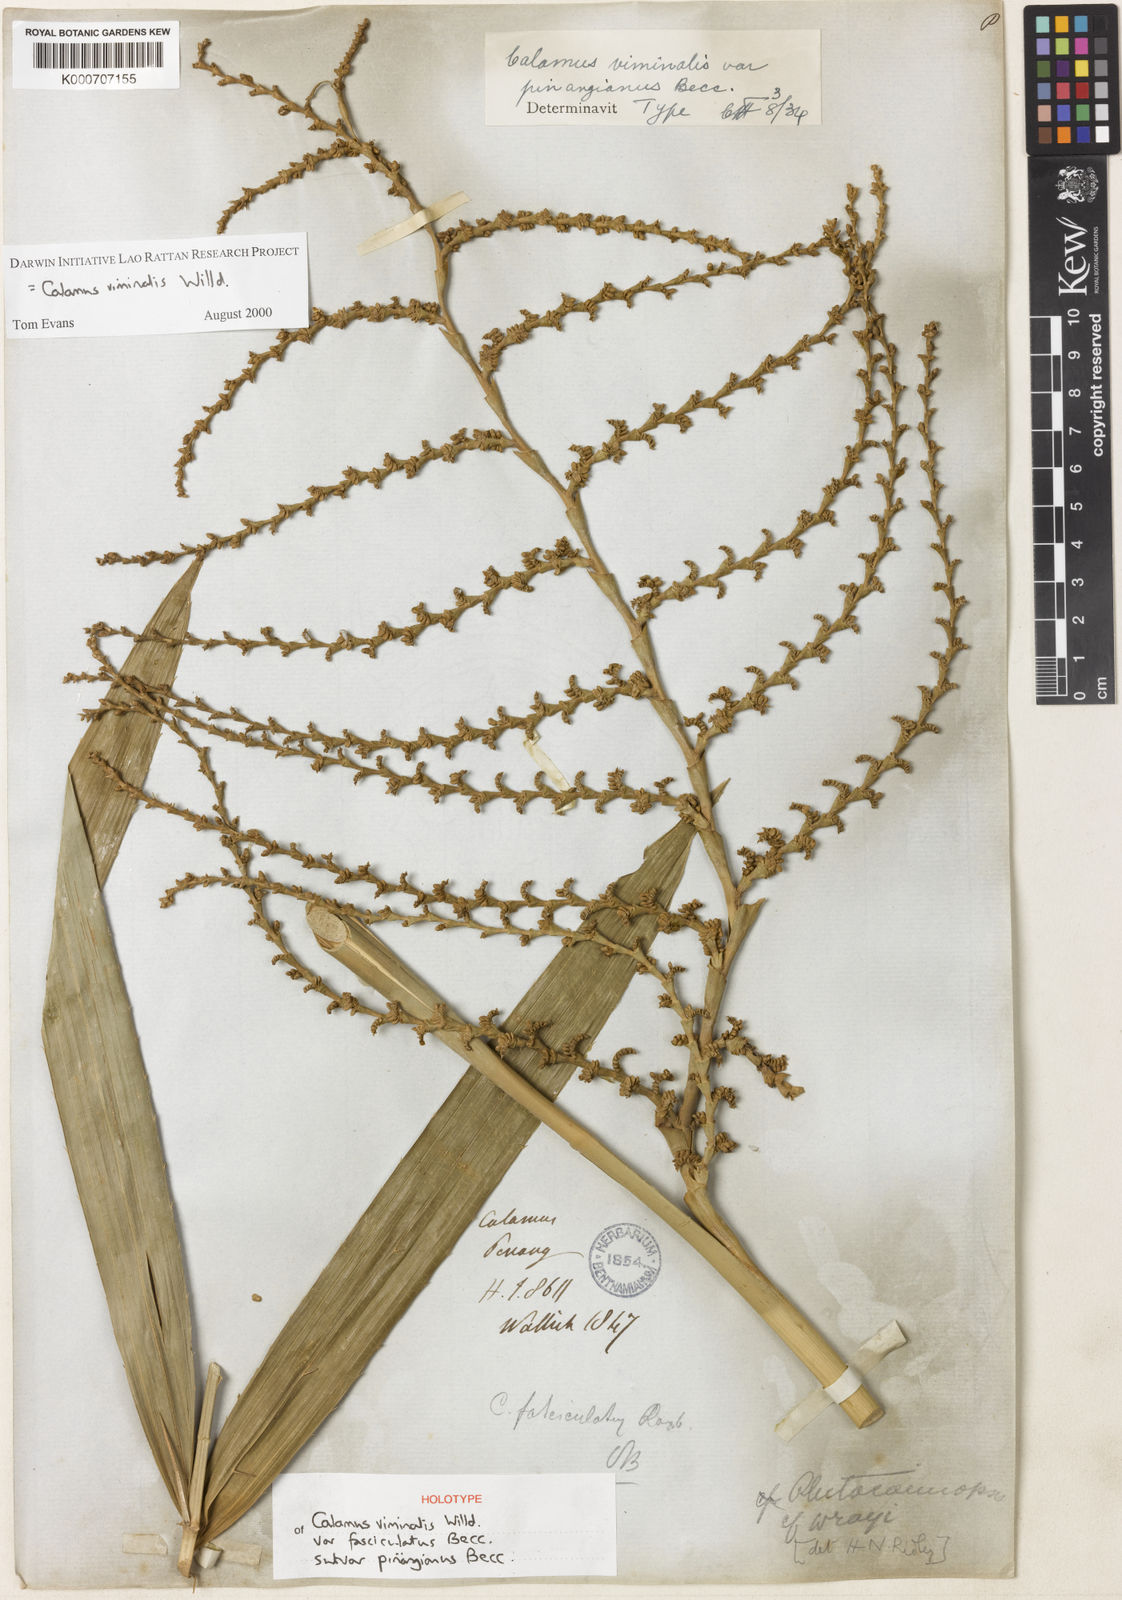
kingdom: Plantae
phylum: Tracheophyta
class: Liliopsida
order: Arecales
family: Arecaceae
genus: Calamus
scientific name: Calamus viminalis
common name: Osier-like rattan palm
